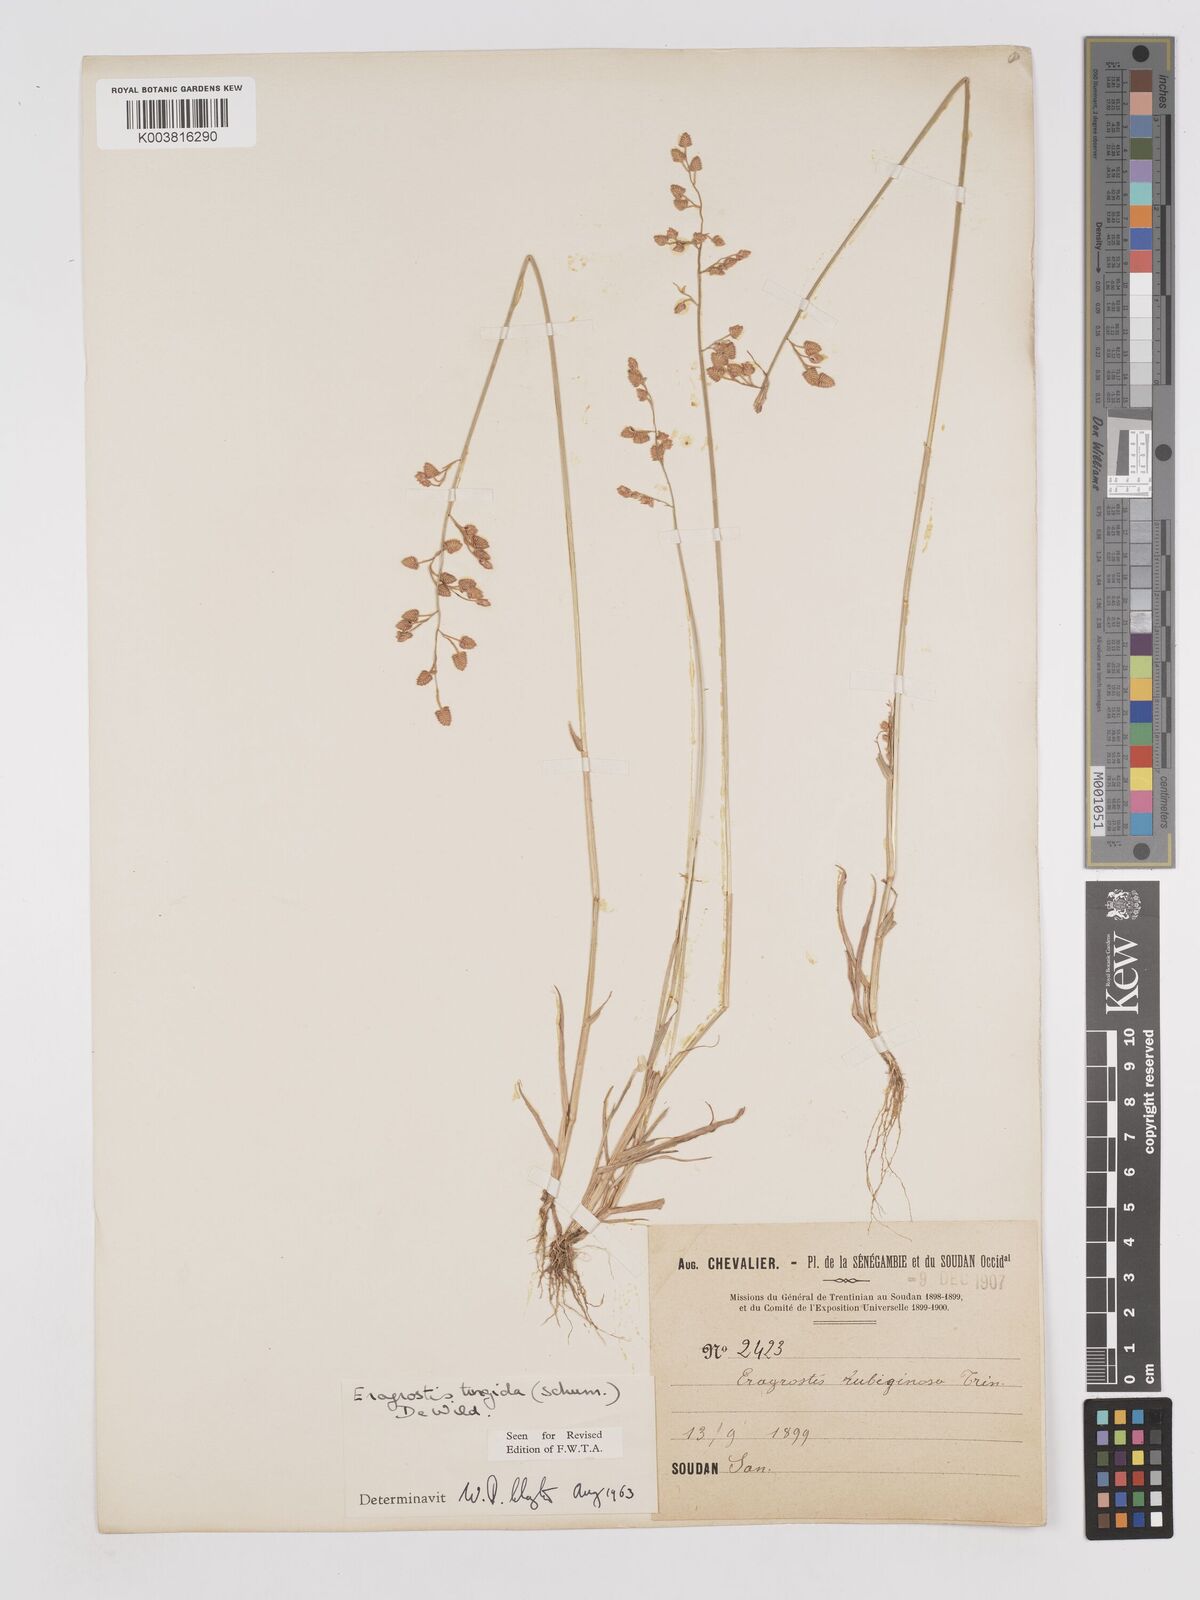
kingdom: Plantae
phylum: Tracheophyta
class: Liliopsida
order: Poales
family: Poaceae
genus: Eragrostis
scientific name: Eragrostis turgida
